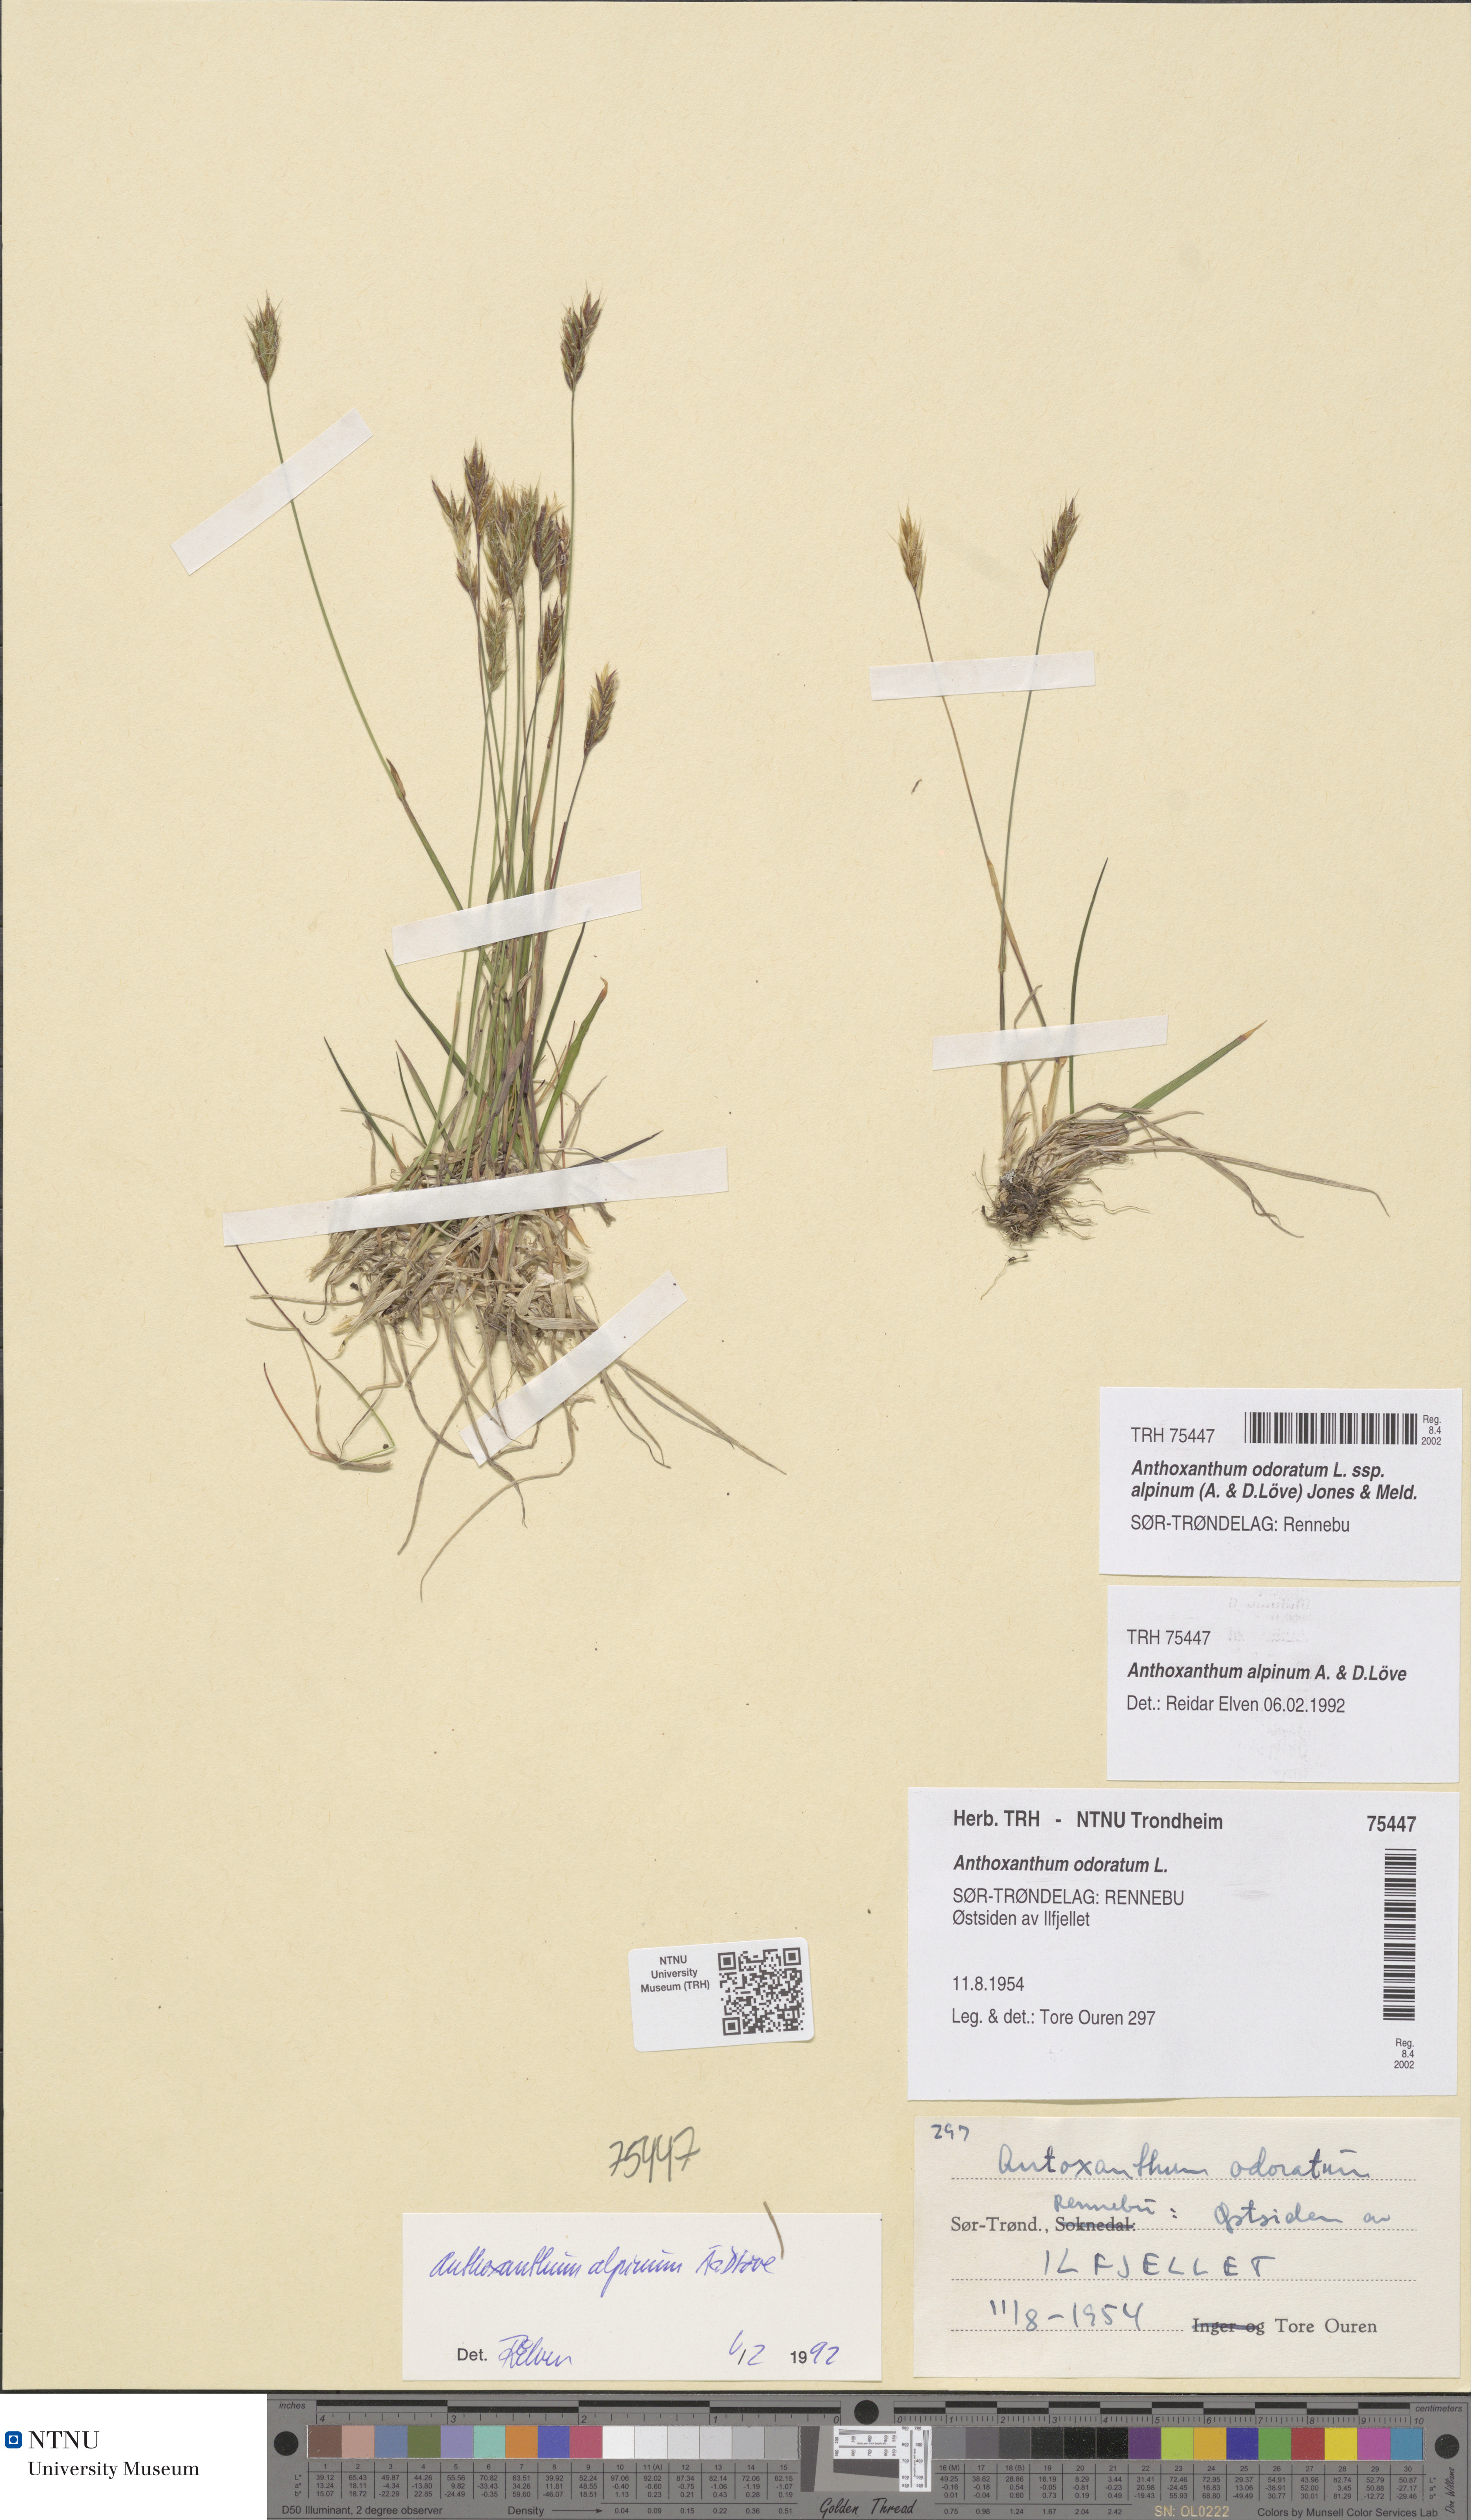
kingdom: Plantae
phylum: Tracheophyta
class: Liliopsida
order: Poales
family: Poaceae
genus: Anthoxanthum
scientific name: Anthoxanthum nipponicum
